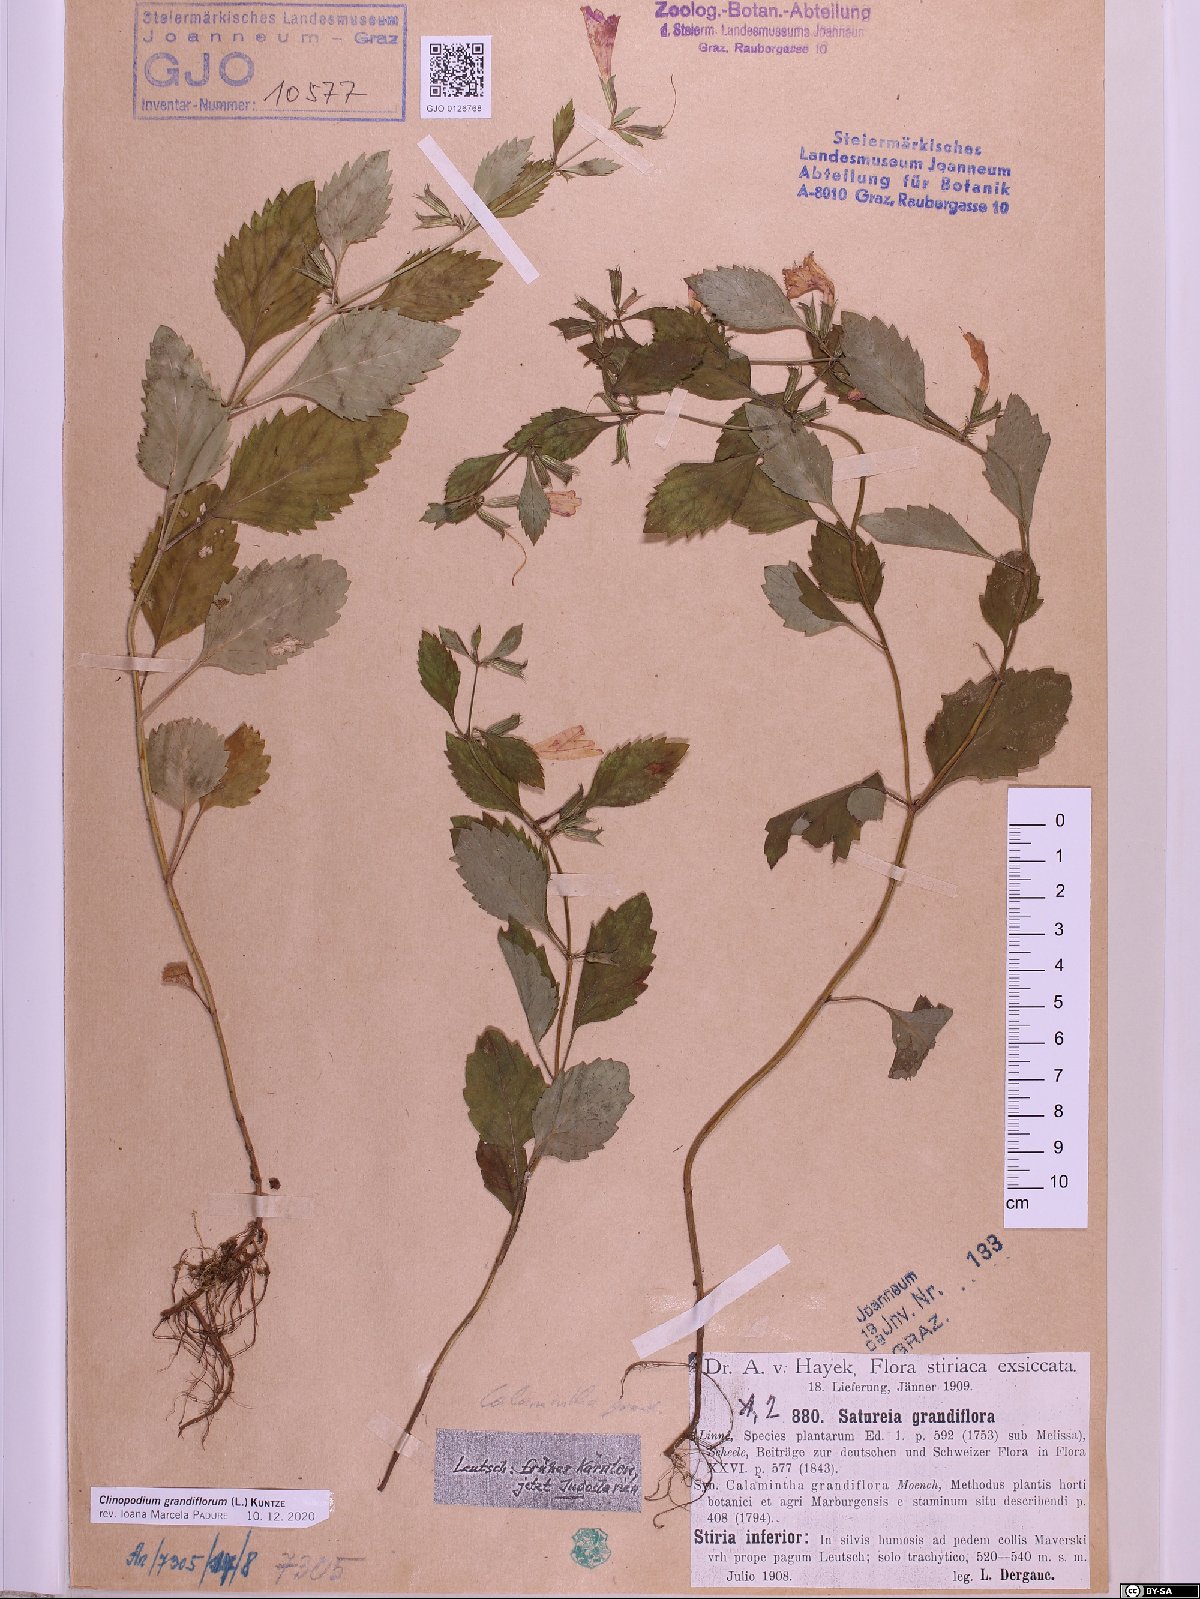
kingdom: Plantae
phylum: Tracheophyta
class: Magnoliopsida
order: Lamiales
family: Lamiaceae
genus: Clinopodium
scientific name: Clinopodium grandiflorum
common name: Greater calamint
